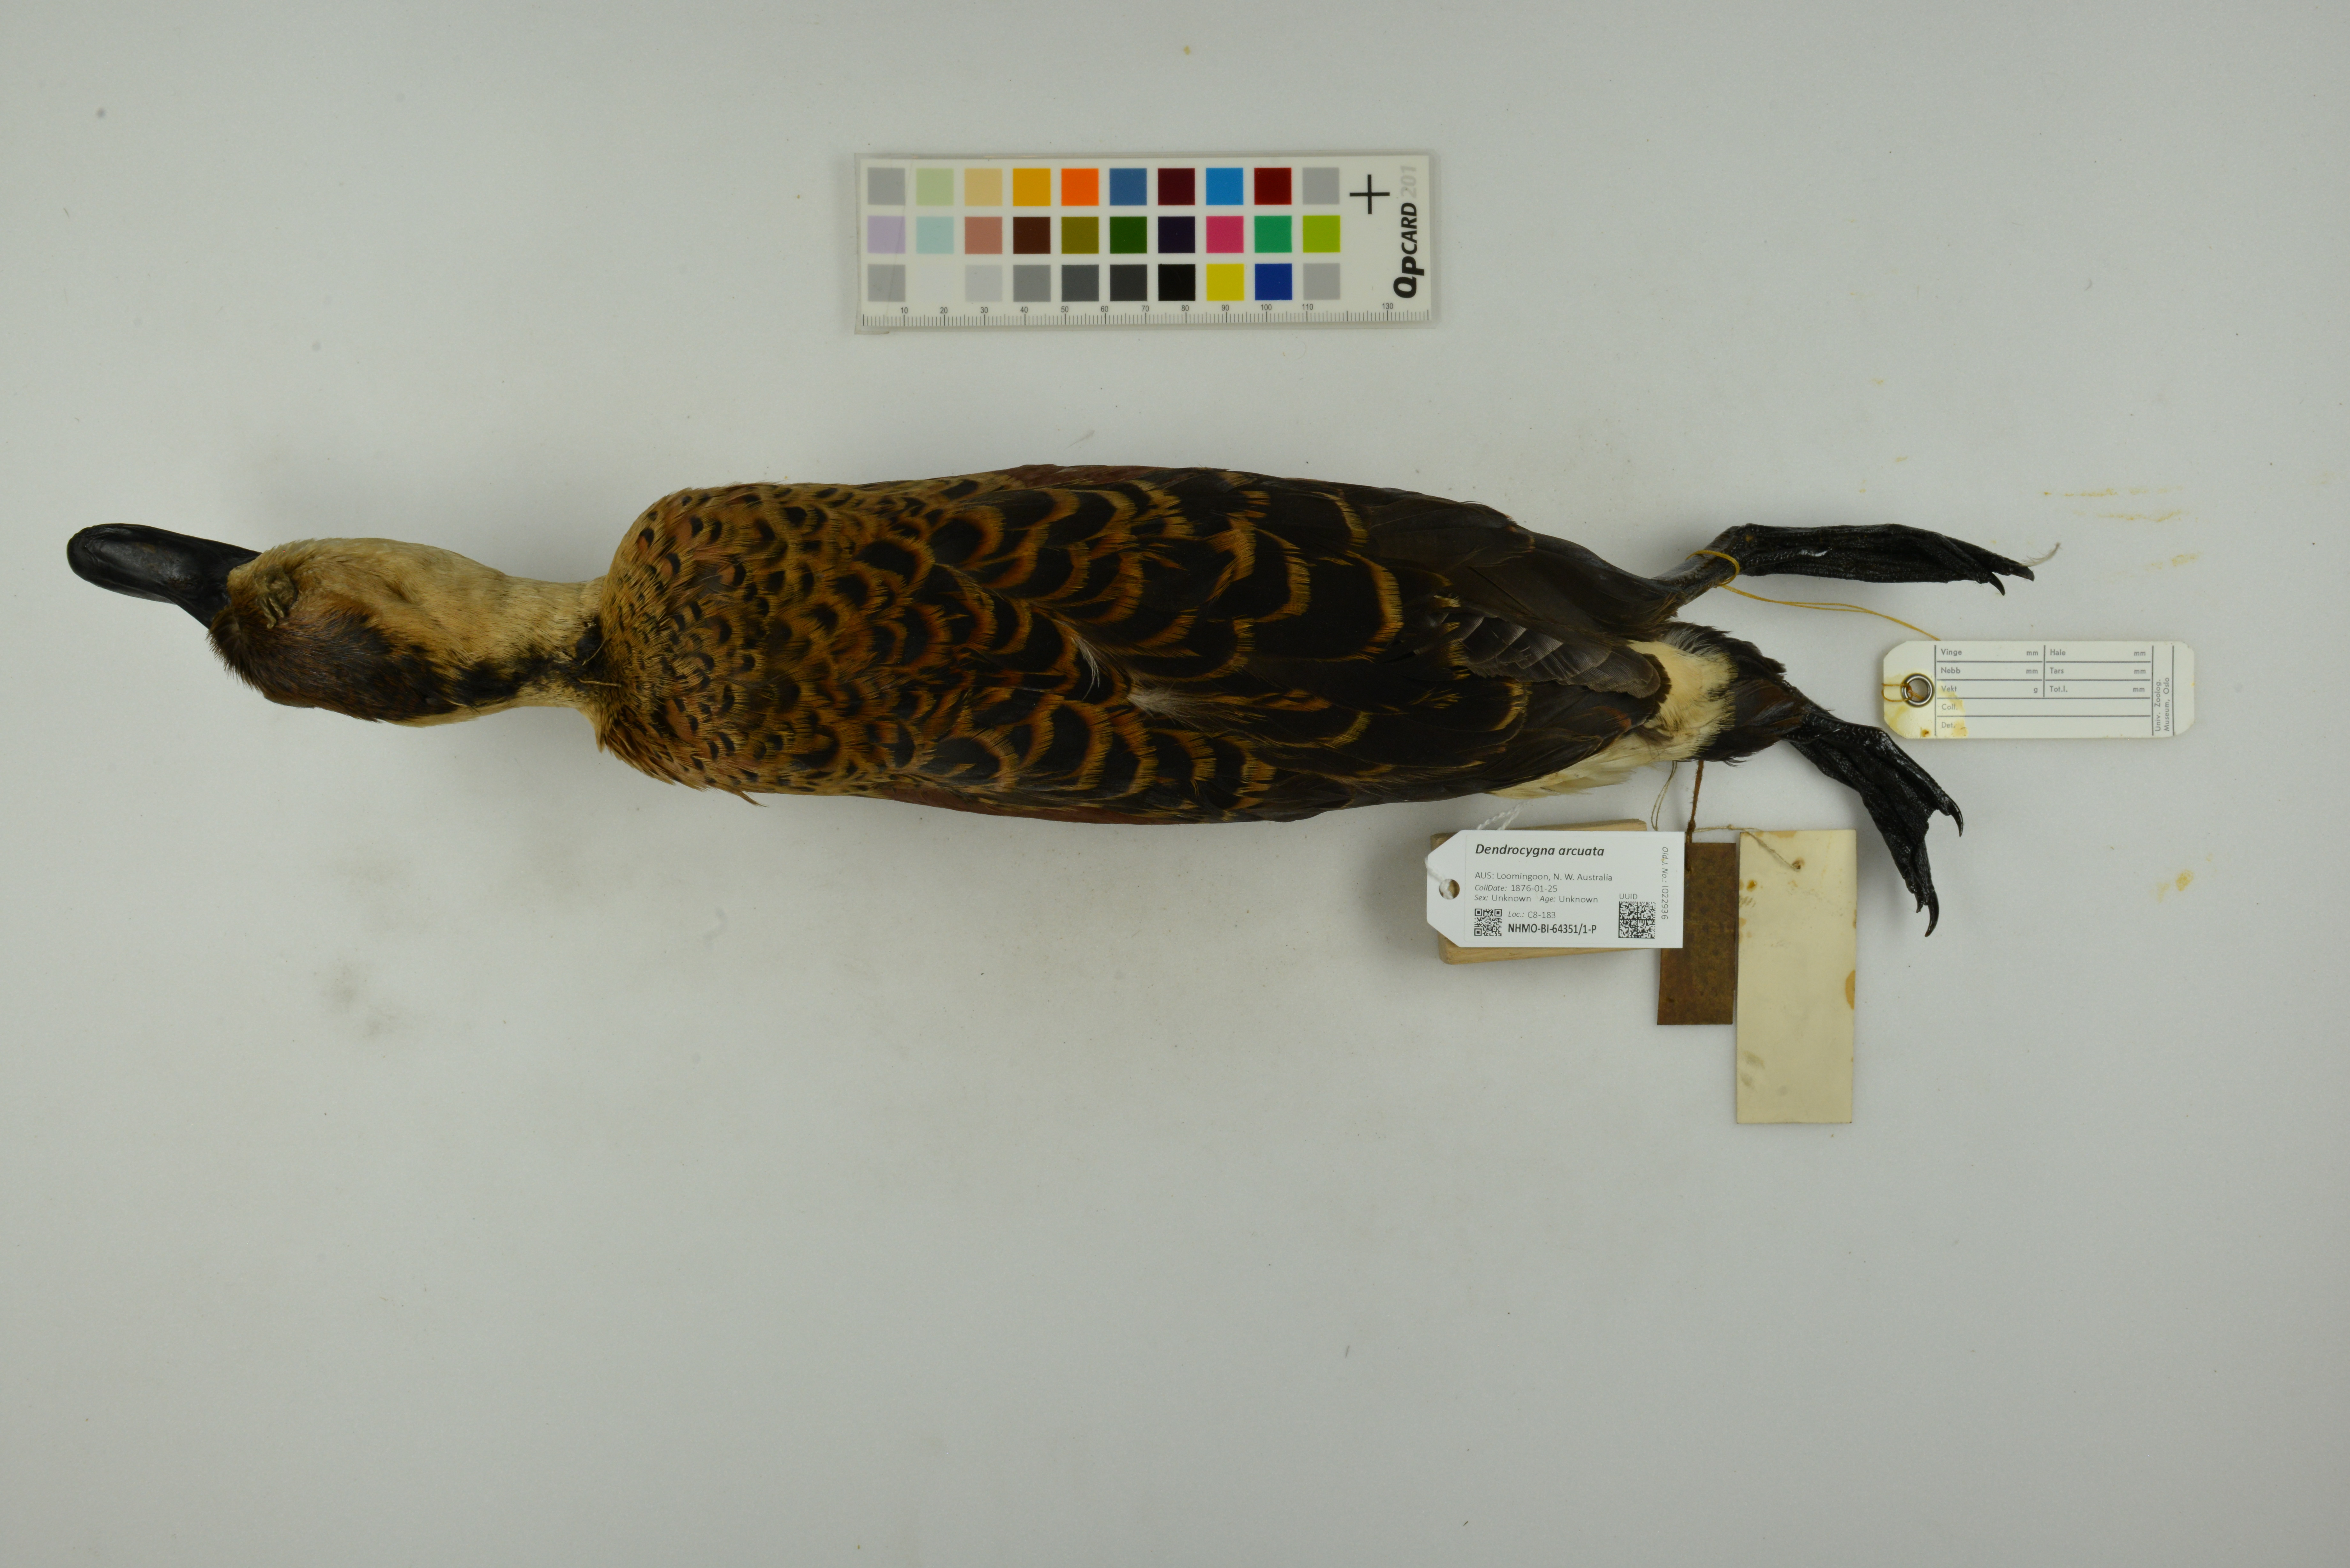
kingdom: Animalia
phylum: Chordata
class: Aves
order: Anseriformes
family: Anatidae
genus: Dendrocygna
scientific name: Dendrocygna arcuata
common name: Wandering whistling-duck
